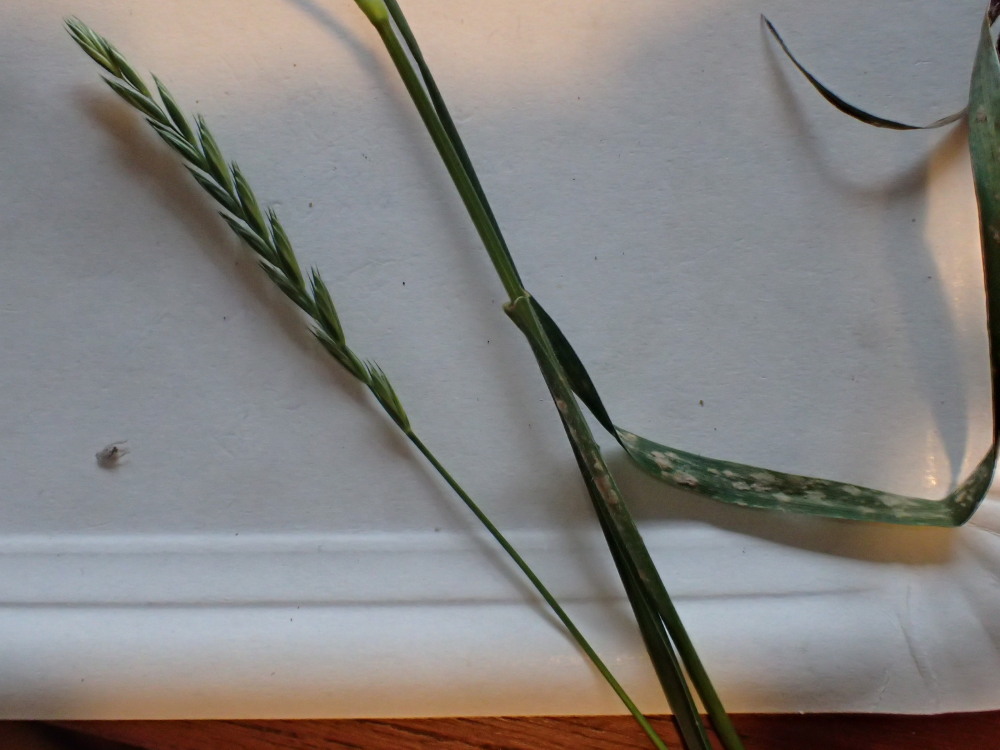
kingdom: Fungi
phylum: Ascomycota
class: Leotiomycetes
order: Helotiales
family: Erysiphaceae
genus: Blumeria
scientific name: Blumeria graminis
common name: græs-meldug
